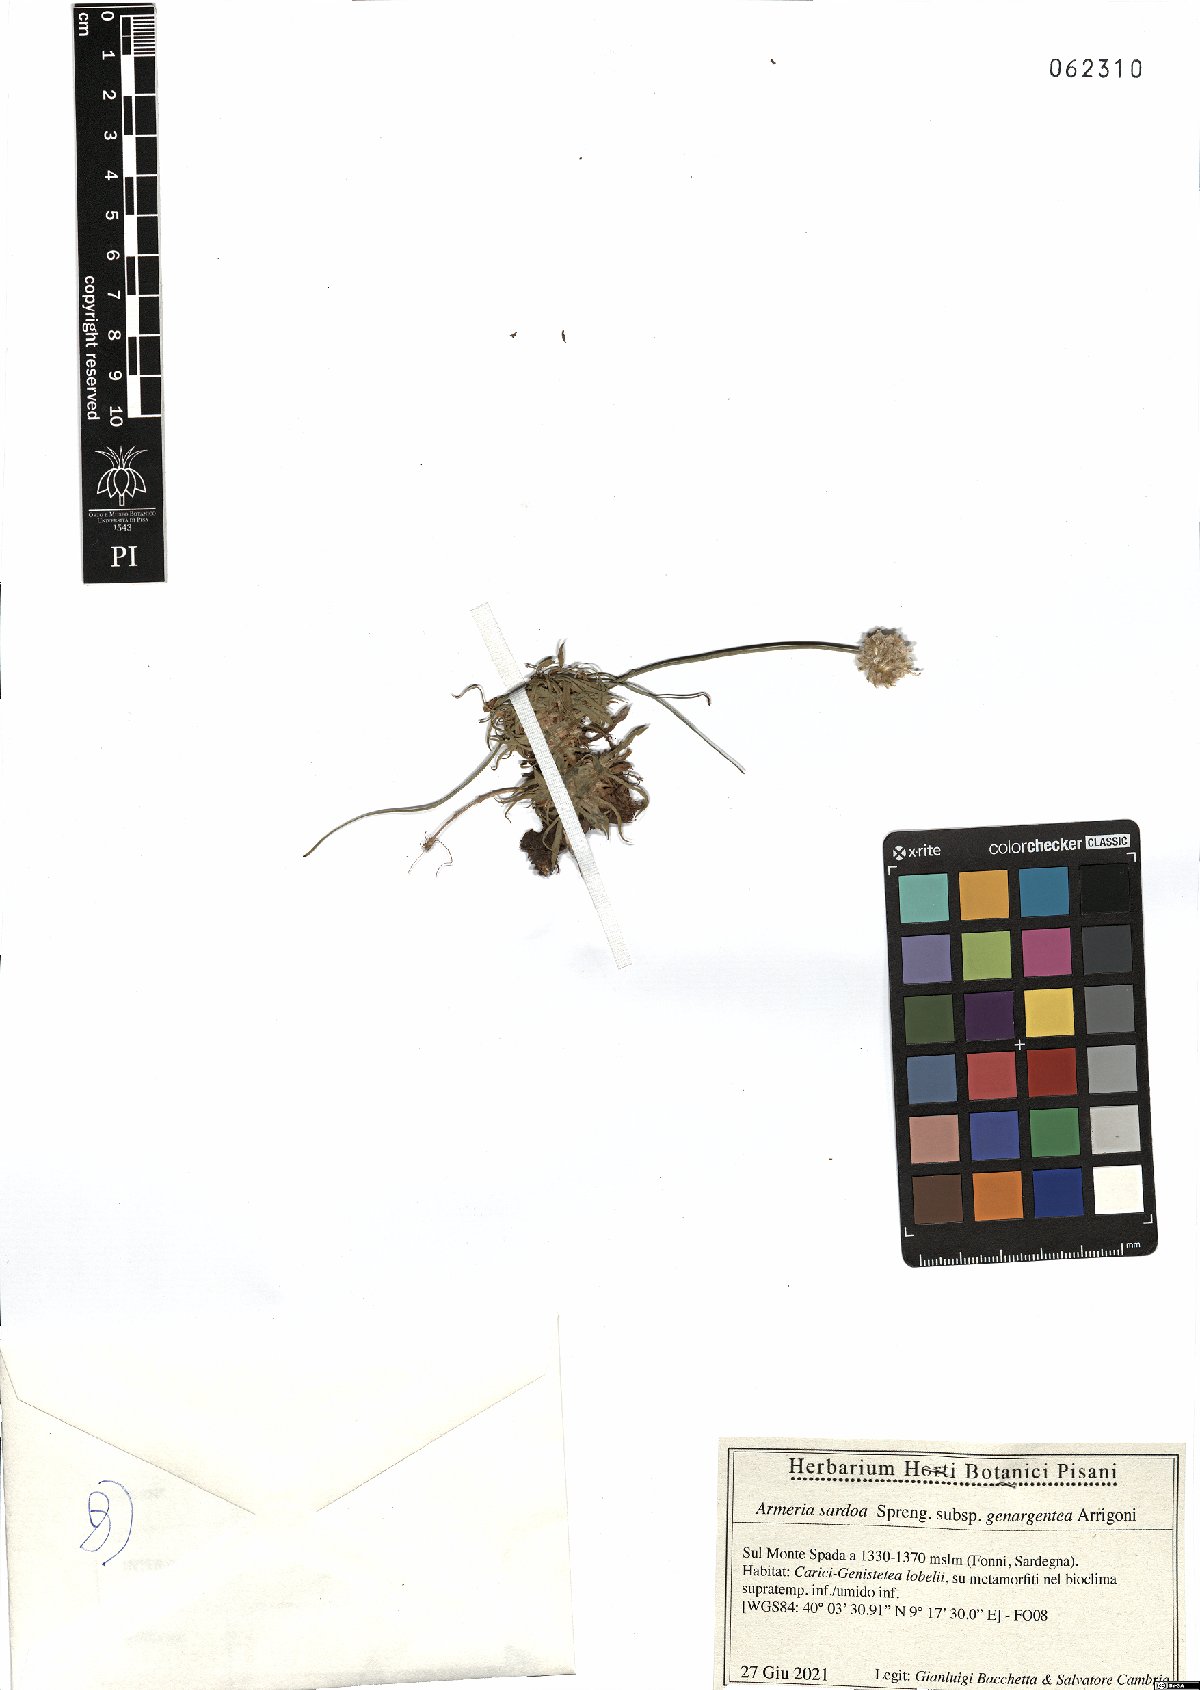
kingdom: Plantae
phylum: Tracheophyta
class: Magnoliopsida
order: Caryophyllales
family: Plumbaginaceae
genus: Armeria
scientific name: Armeria sardoa
